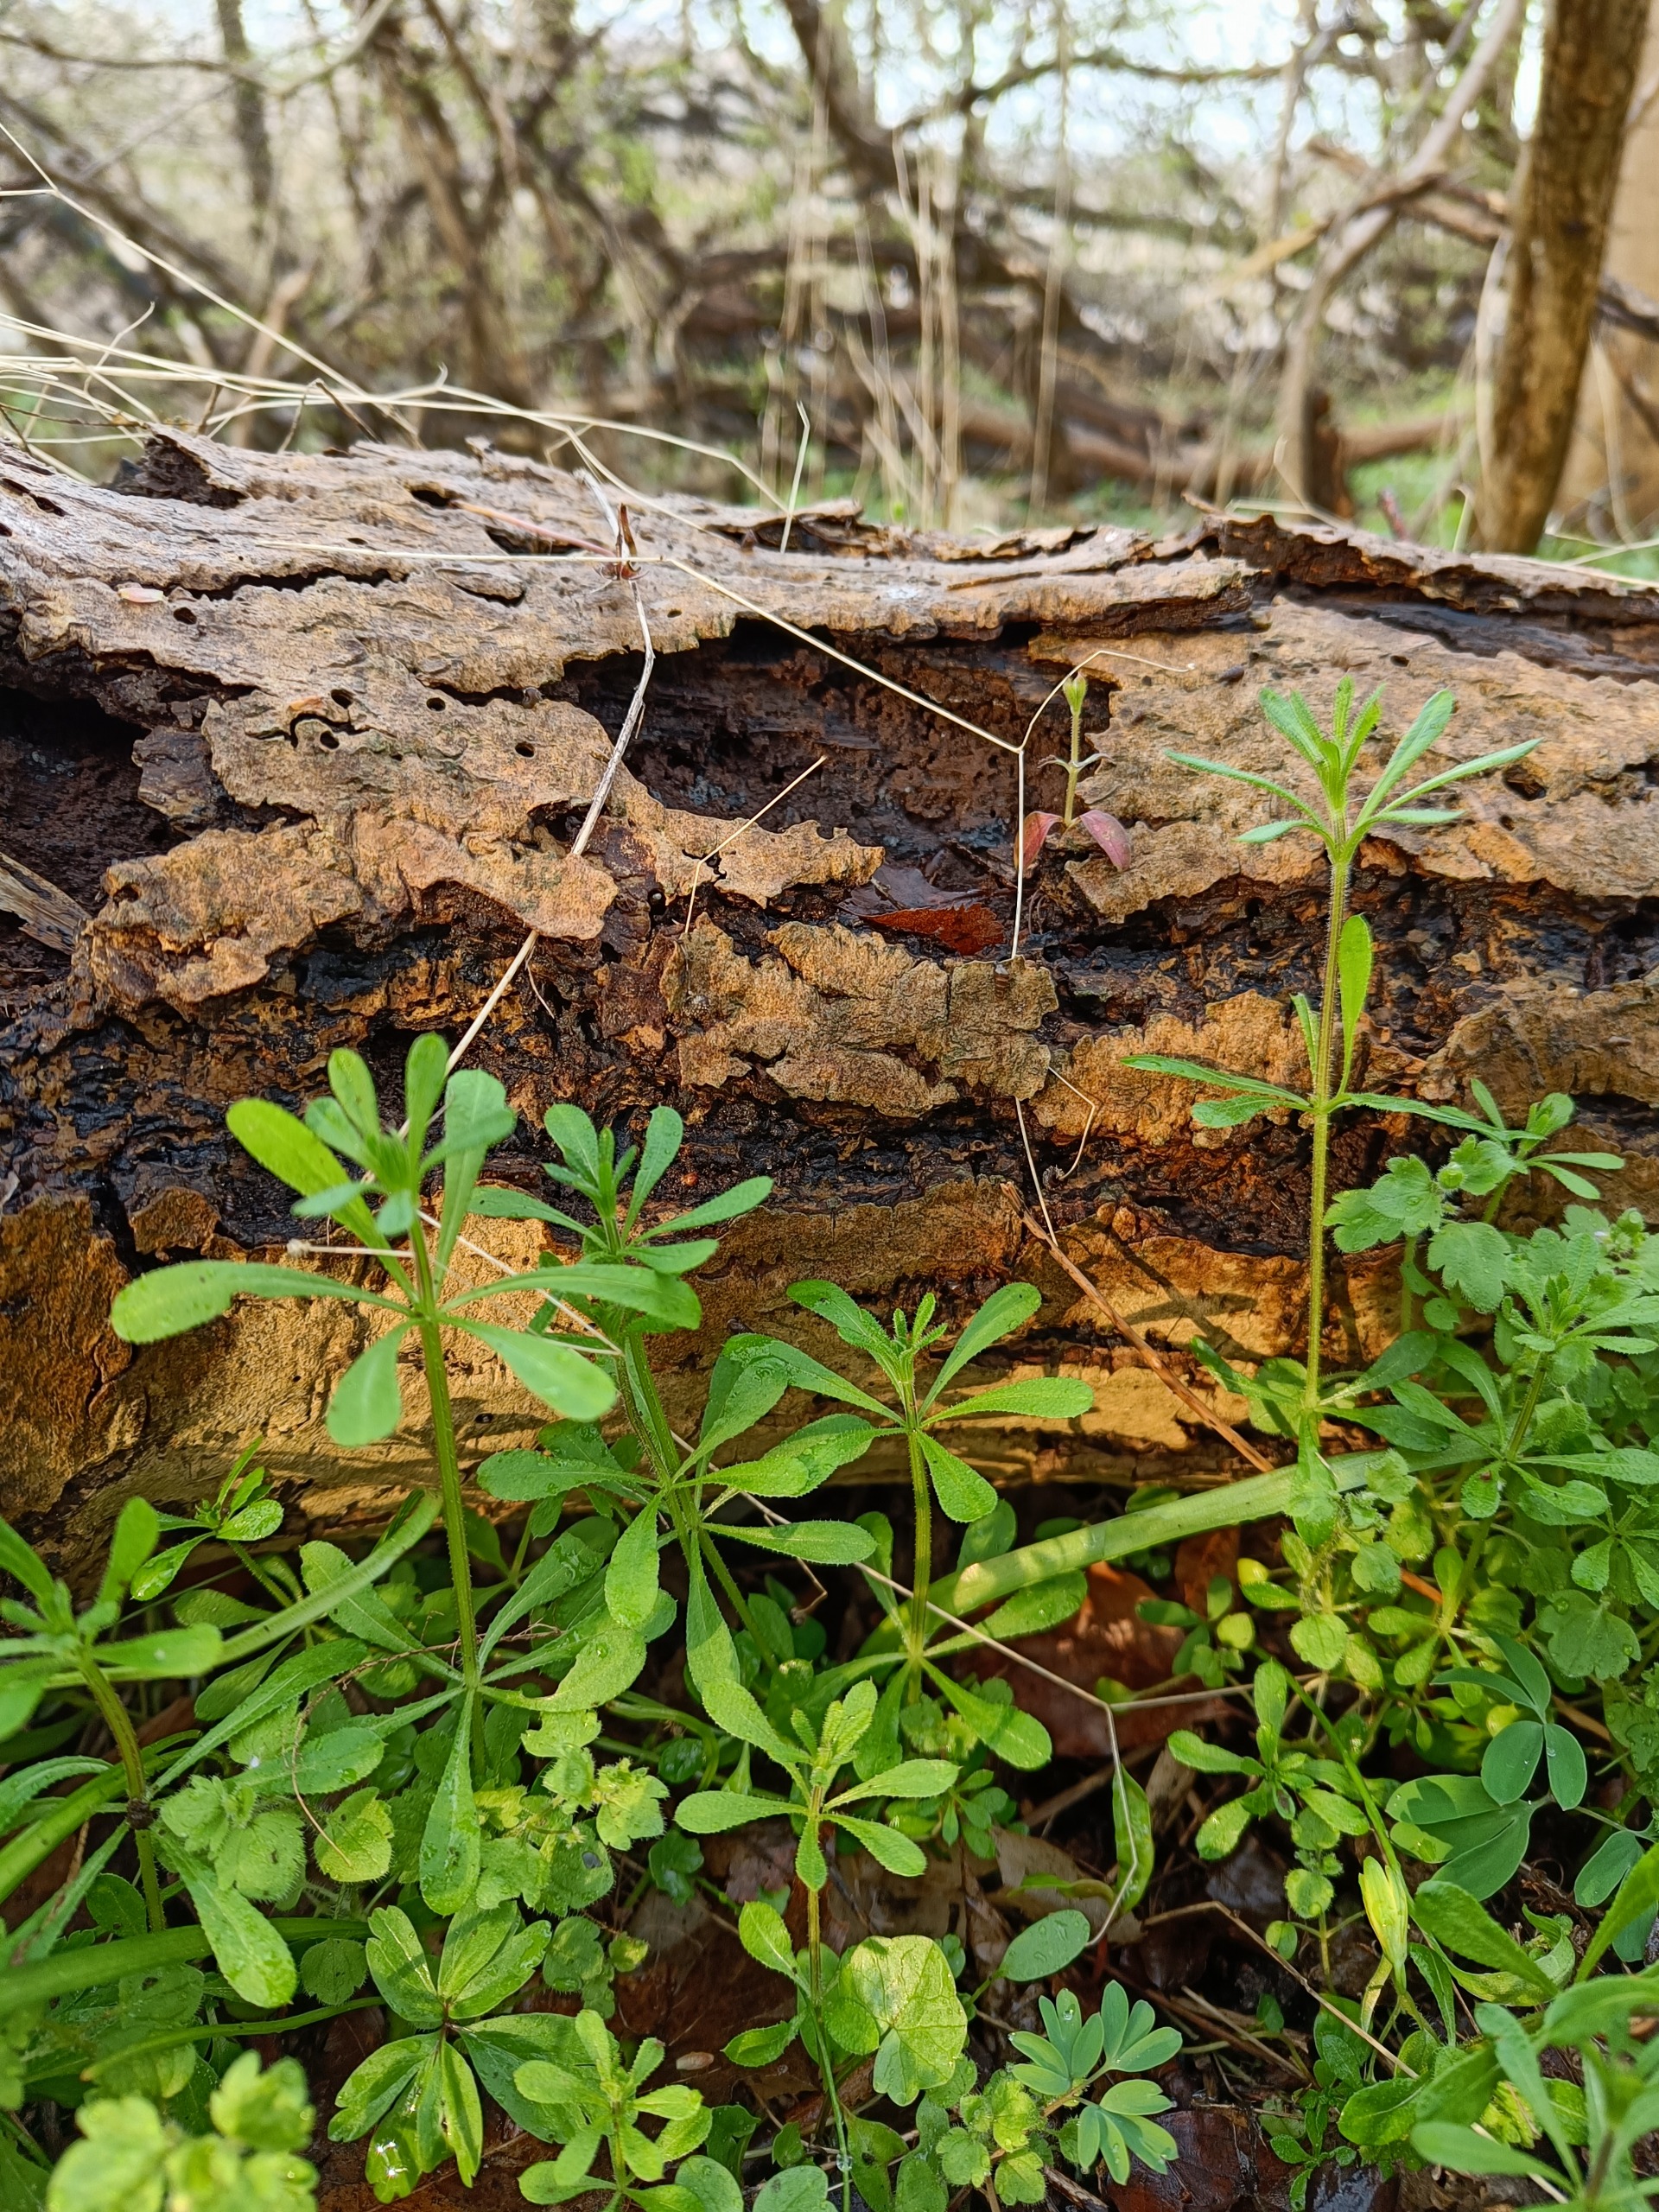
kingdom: Plantae
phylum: Tracheophyta
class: Magnoliopsida
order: Gentianales
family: Rubiaceae
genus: Galium
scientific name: Galium aparine
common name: Burre-snerre
